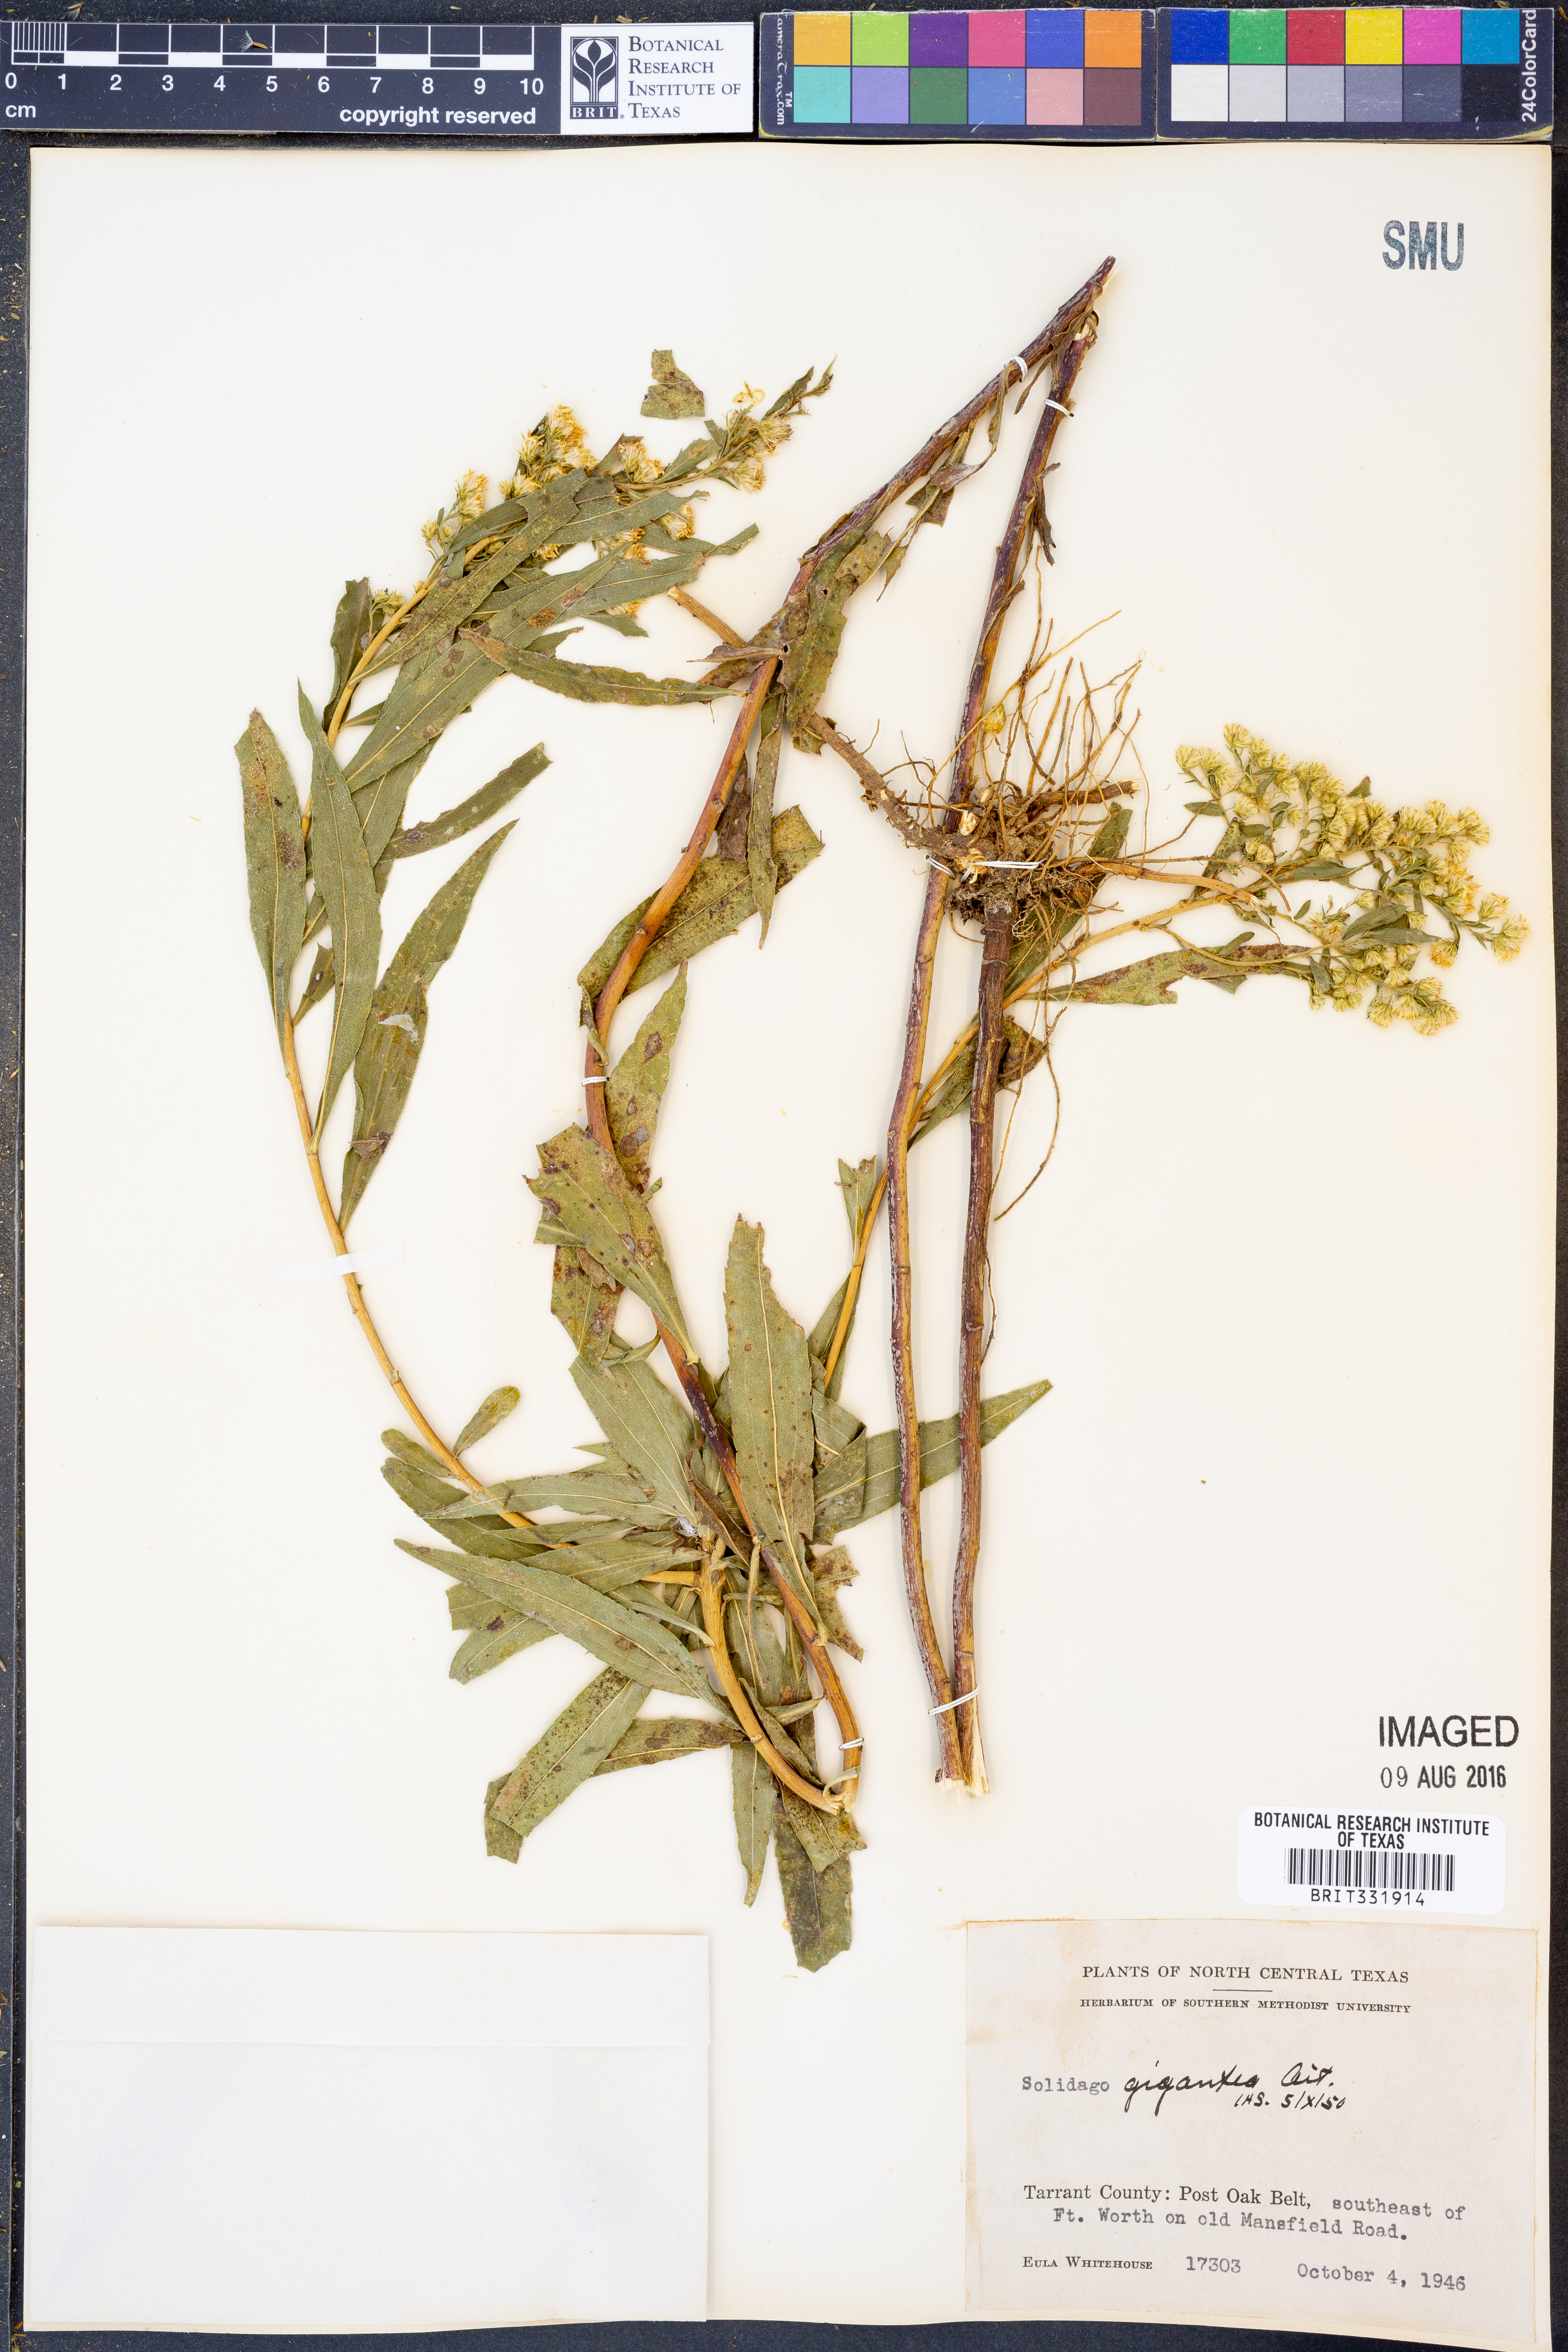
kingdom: Plantae
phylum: Tracheophyta
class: Magnoliopsida
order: Asterales
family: Asteraceae
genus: Solidago
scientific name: Solidago gigantea
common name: Giant goldenrod
